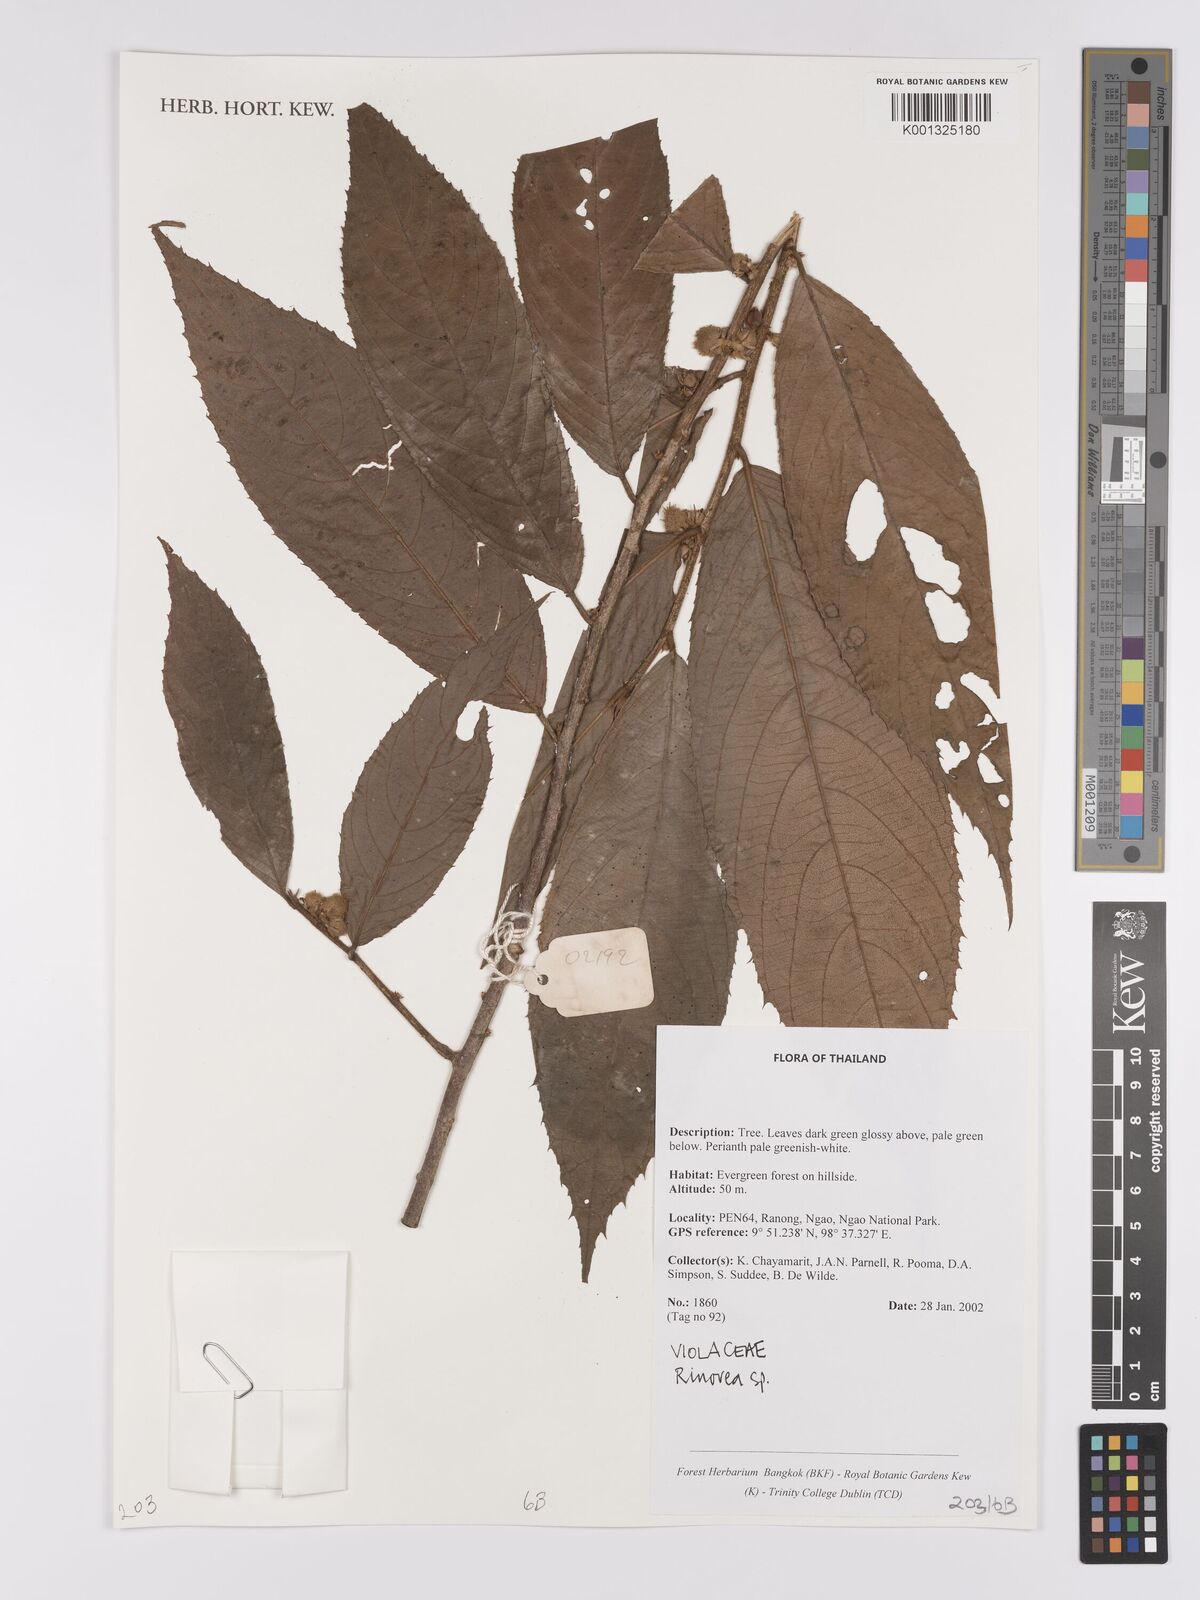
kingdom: Plantae
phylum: Tracheophyta
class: Magnoliopsida
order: Malpighiales
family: Violaceae
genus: Rinorea
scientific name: Rinorea
